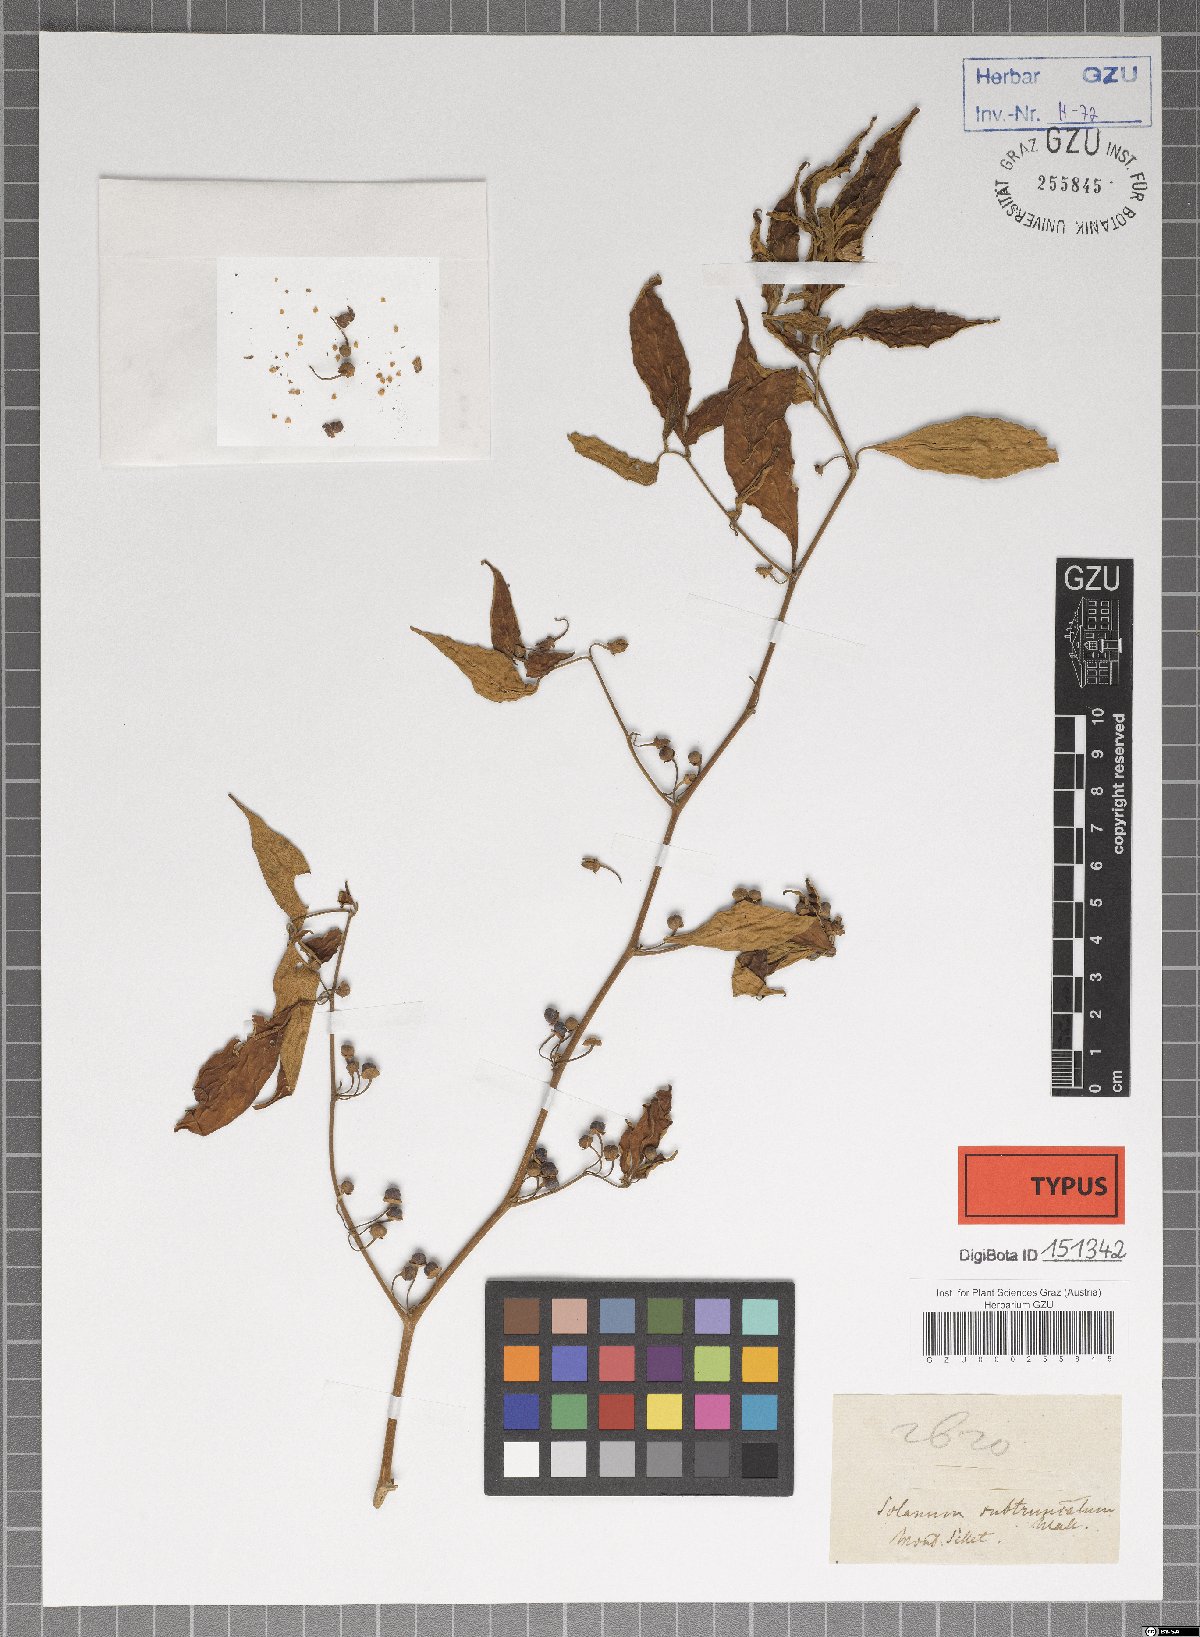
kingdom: Plantae
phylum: Tracheophyta
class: Magnoliopsida
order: Solanales
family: Solanaceae
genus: Lycianthes
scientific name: Lycianthes neesiana
